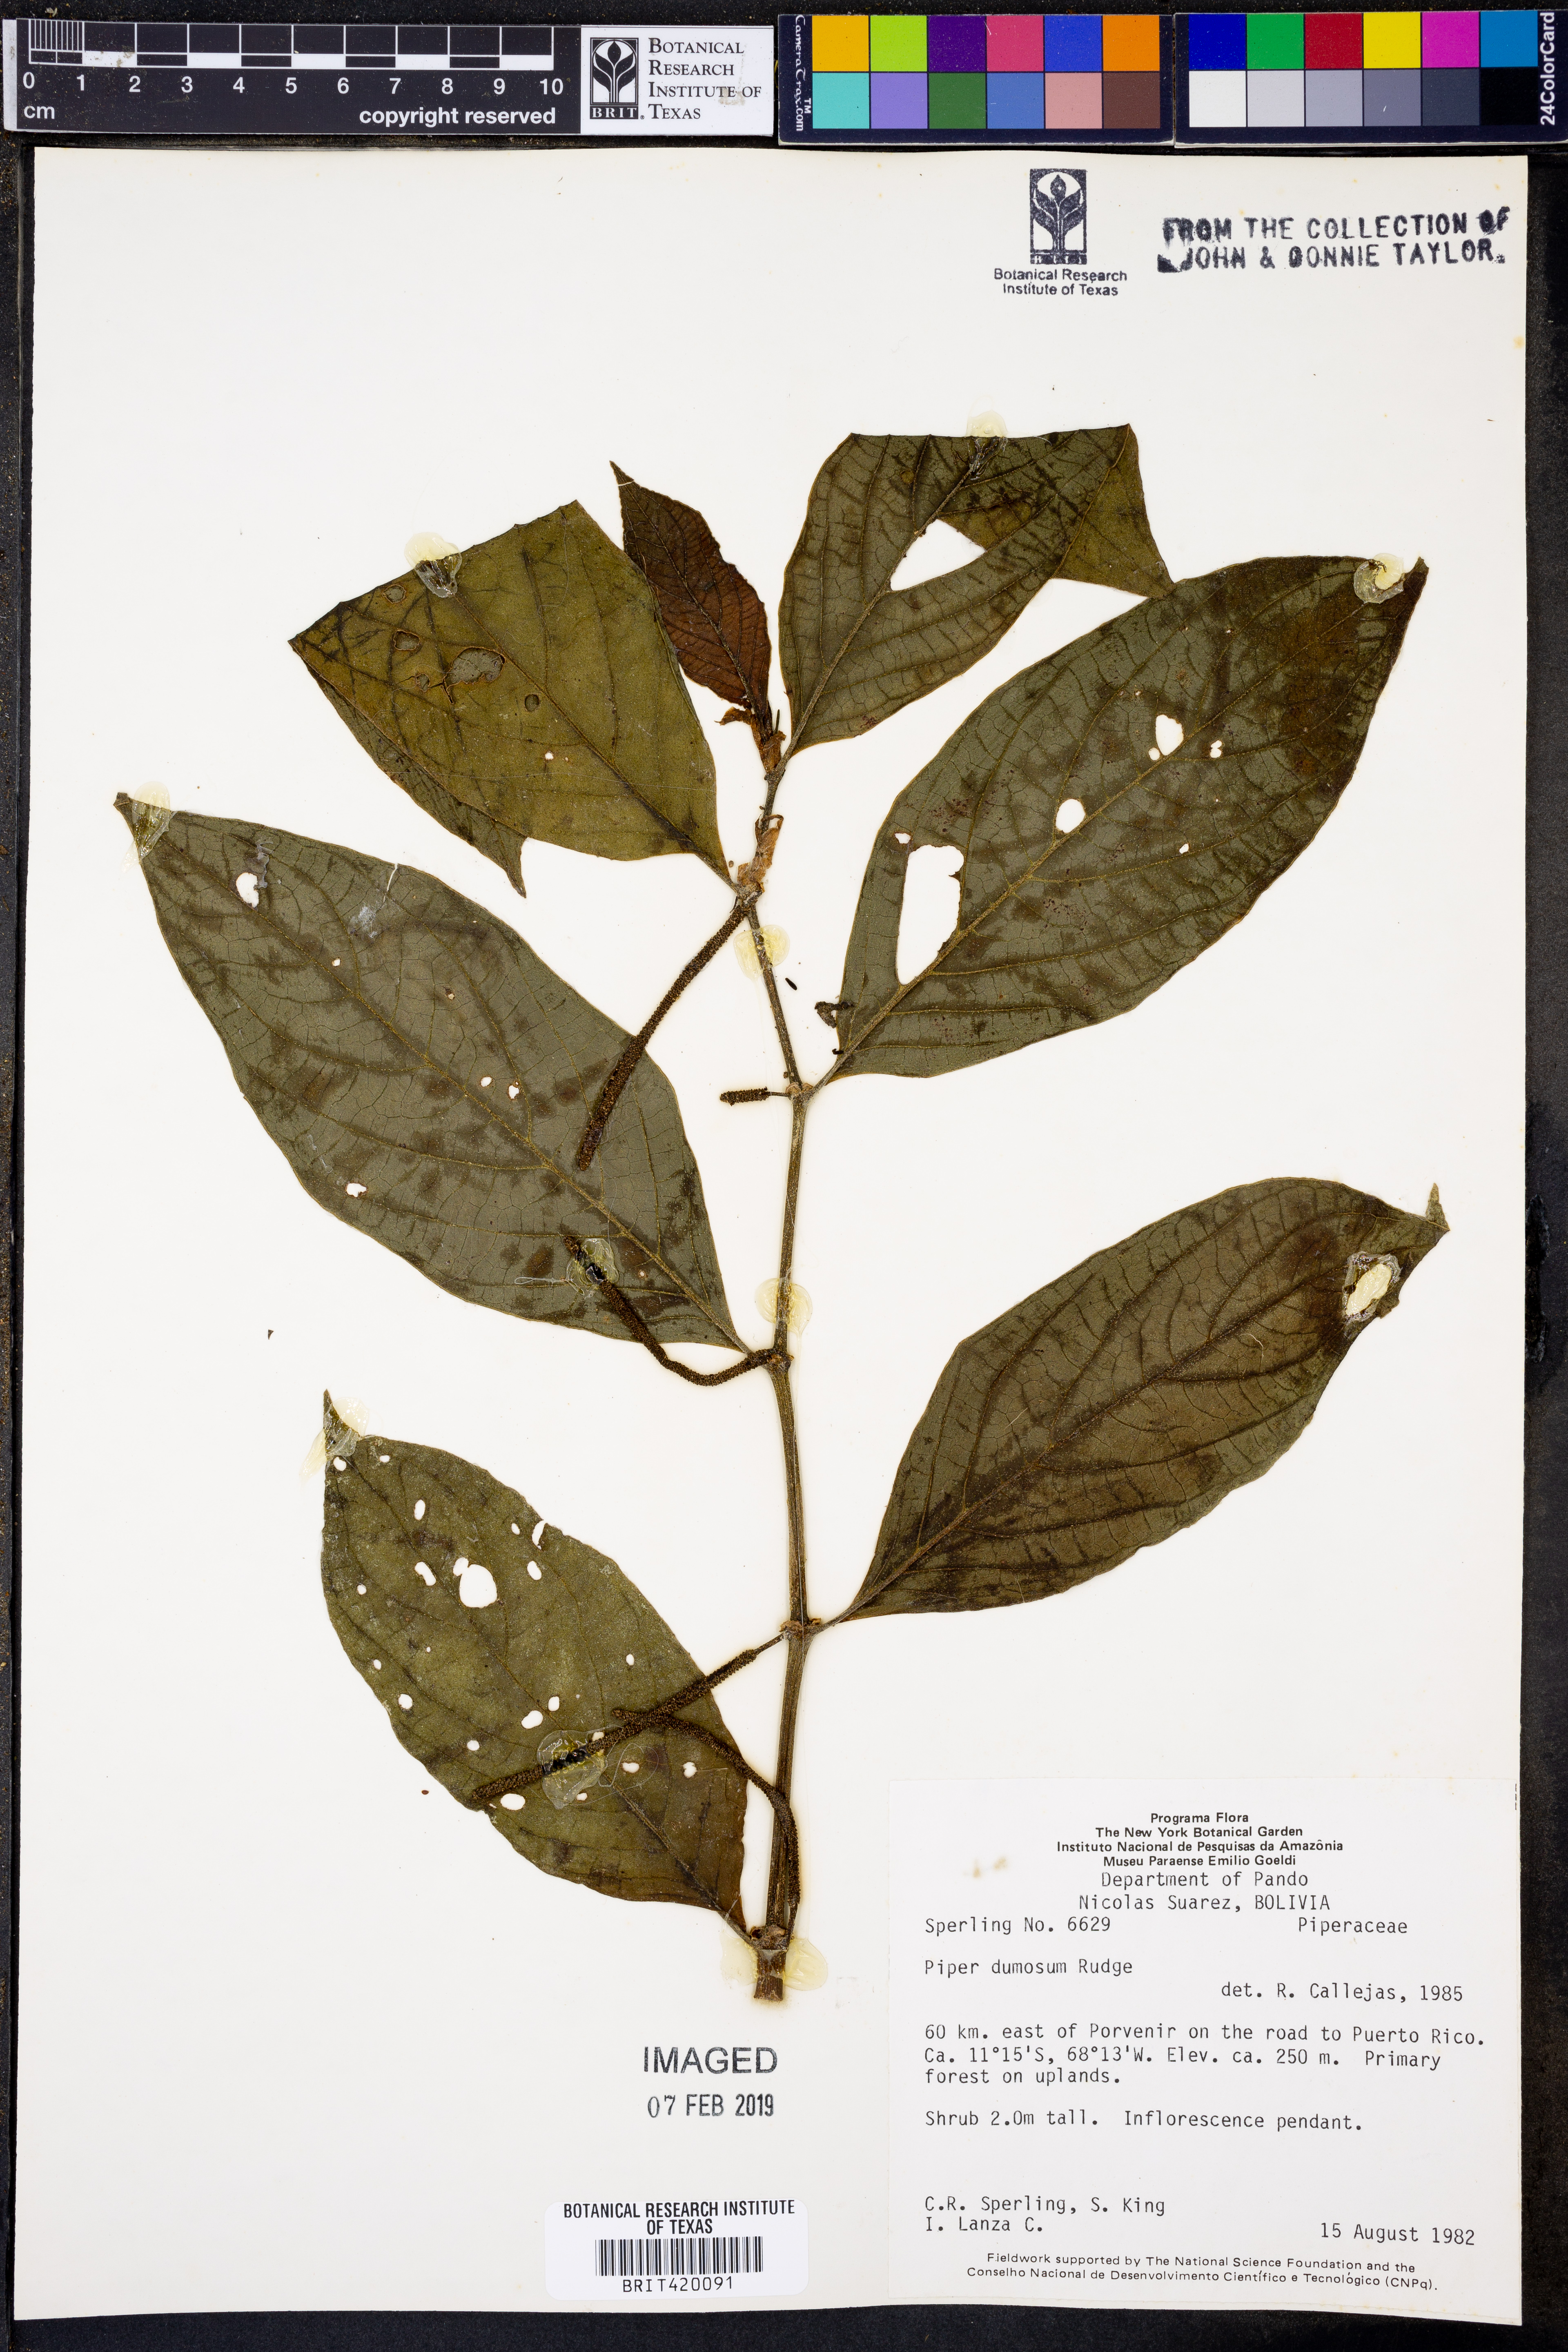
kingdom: Plantae
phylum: Tracheophyta
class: Magnoliopsida
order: Piperales
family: Piperaceae
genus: Piper
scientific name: Piper dumosum
